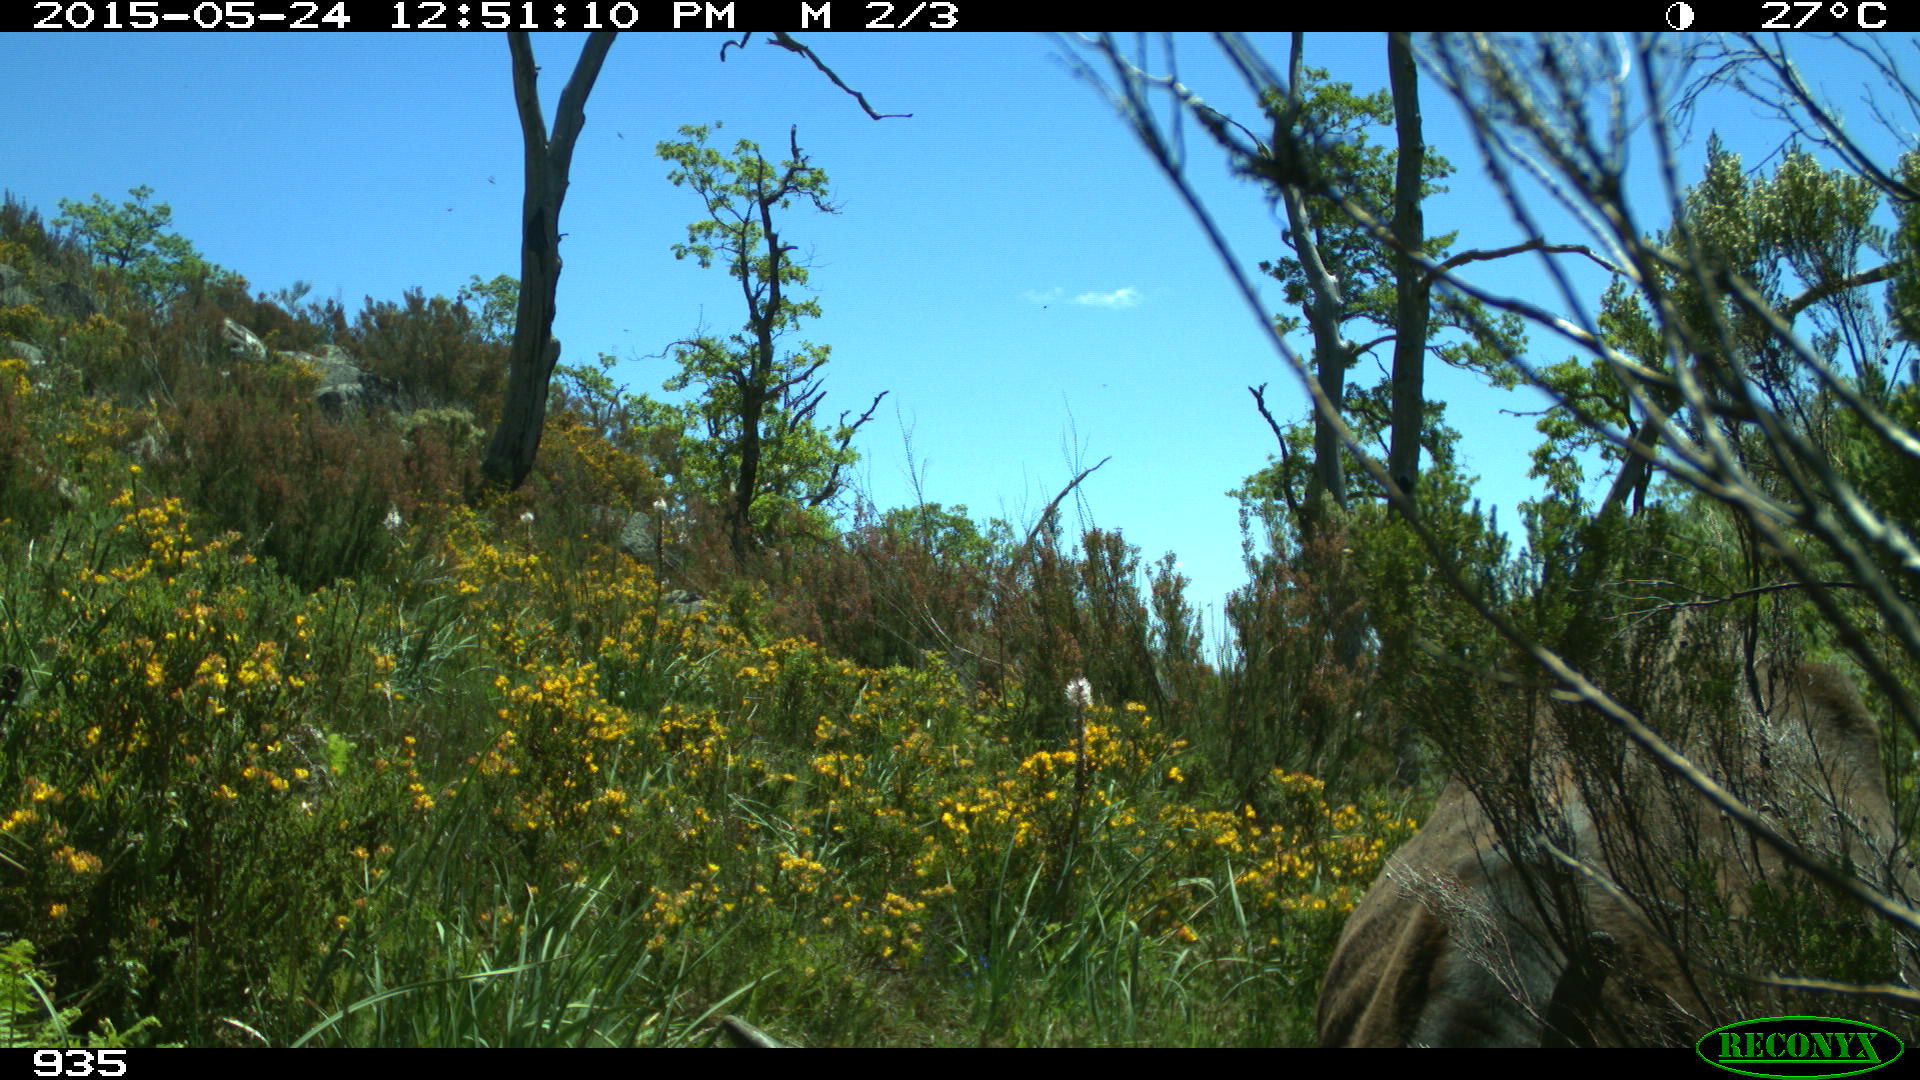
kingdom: Animalia
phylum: Chordata
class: Mammalia
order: Artiodactyla
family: Bovidae
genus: Bos
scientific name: Bos taurus
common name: Domesticated cattle
